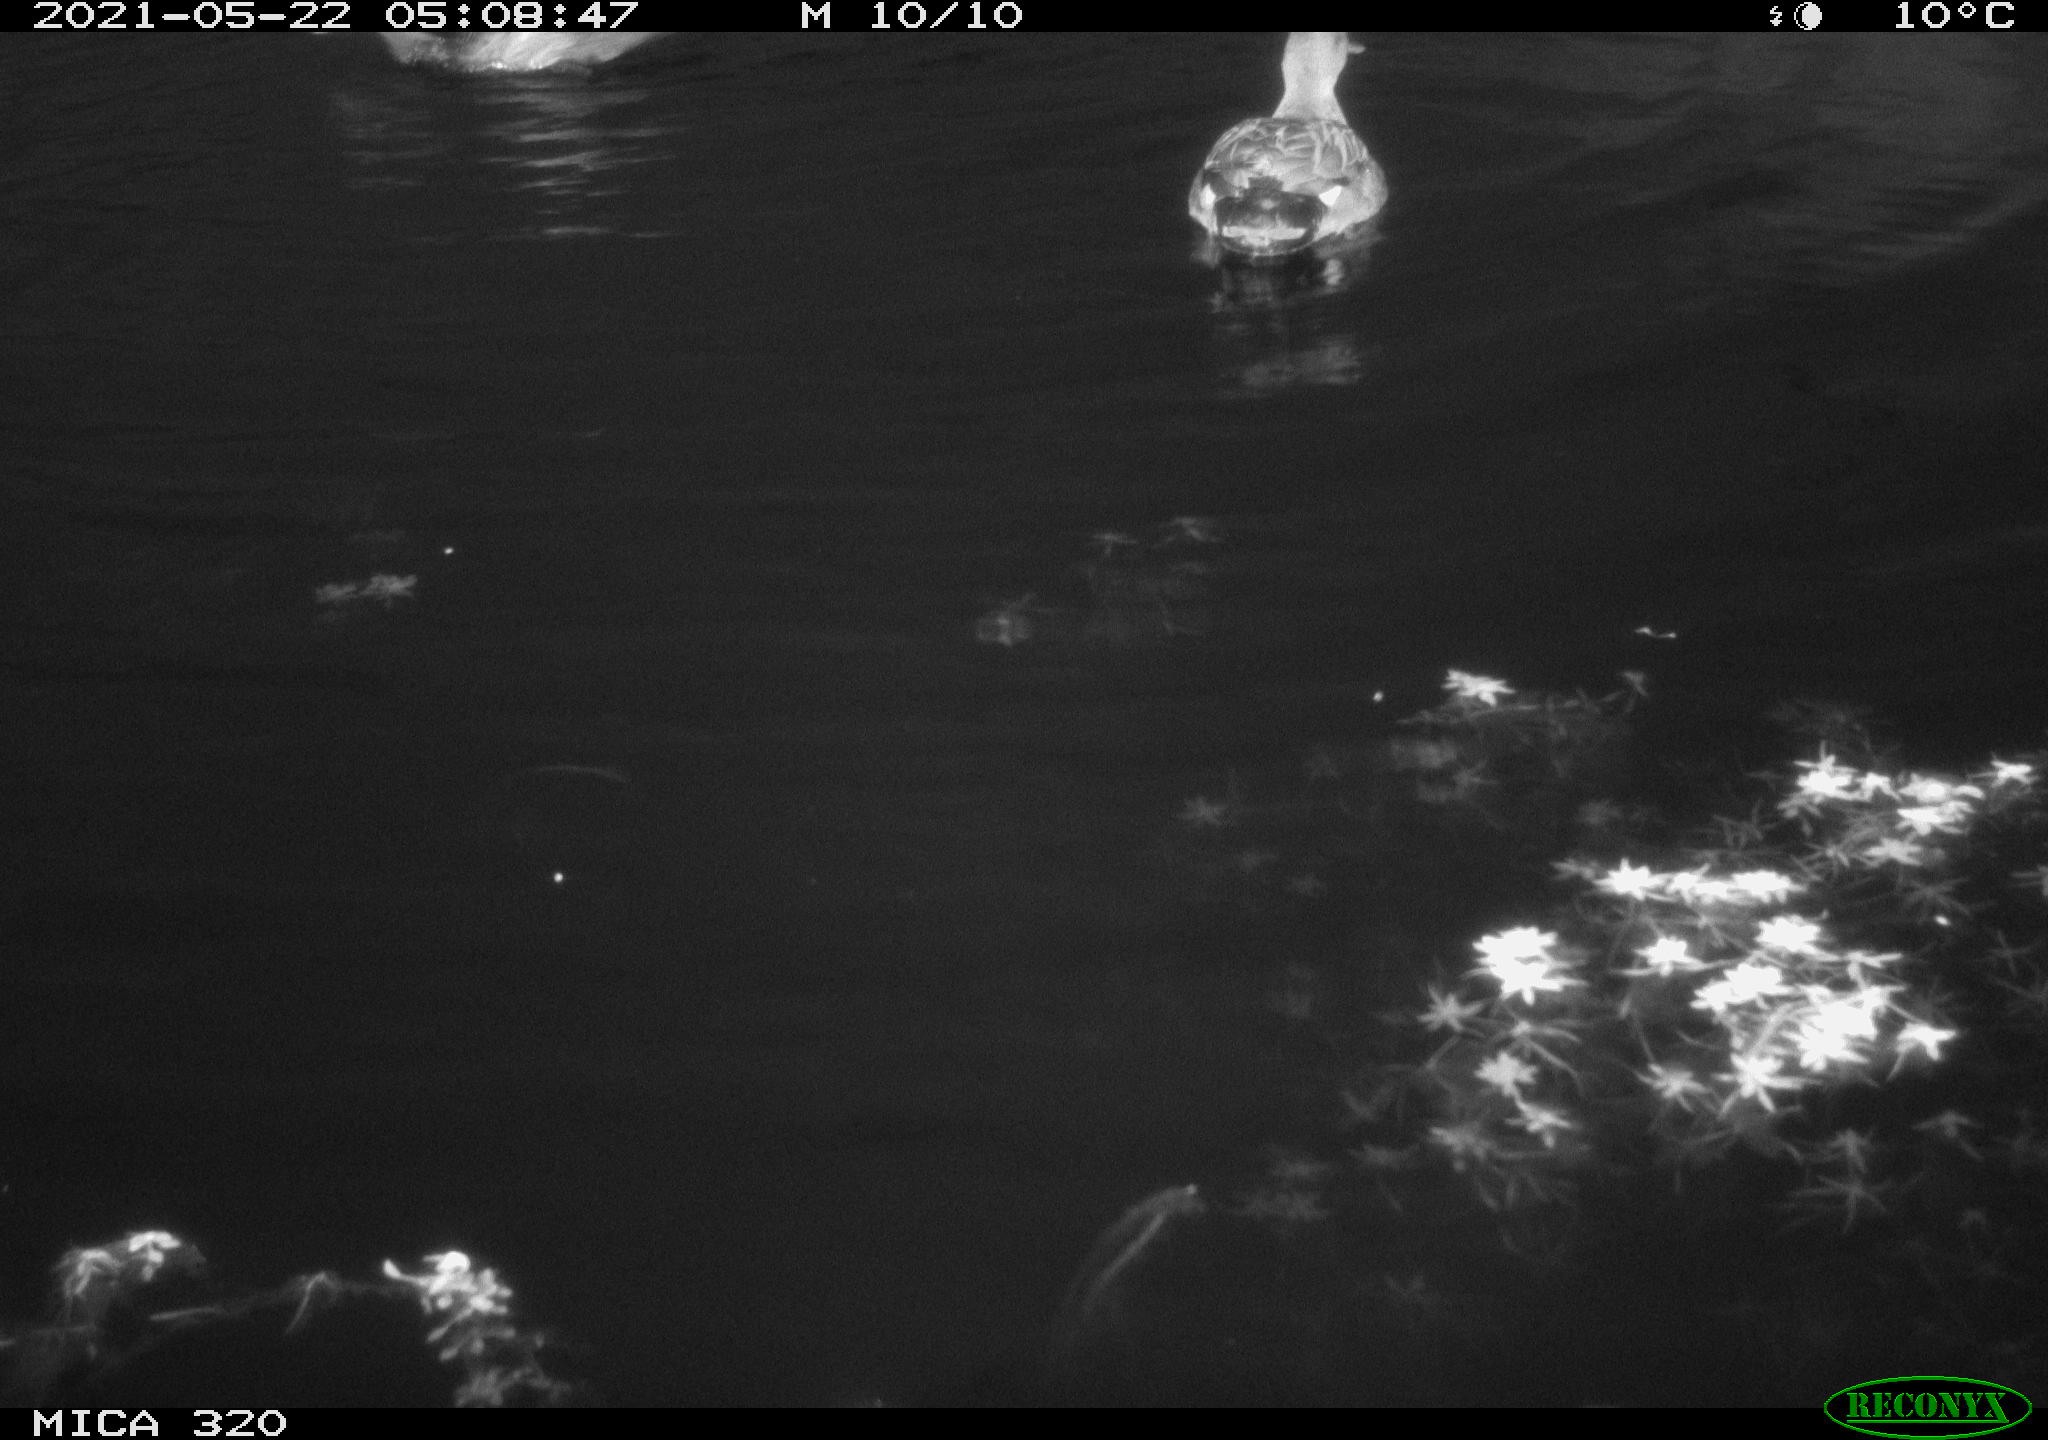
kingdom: Animalia
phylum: Chordata
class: Aves
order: Gruiformes
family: Rallidae
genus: Gallinula
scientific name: Gallinula chloropus
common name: Common moorhen
